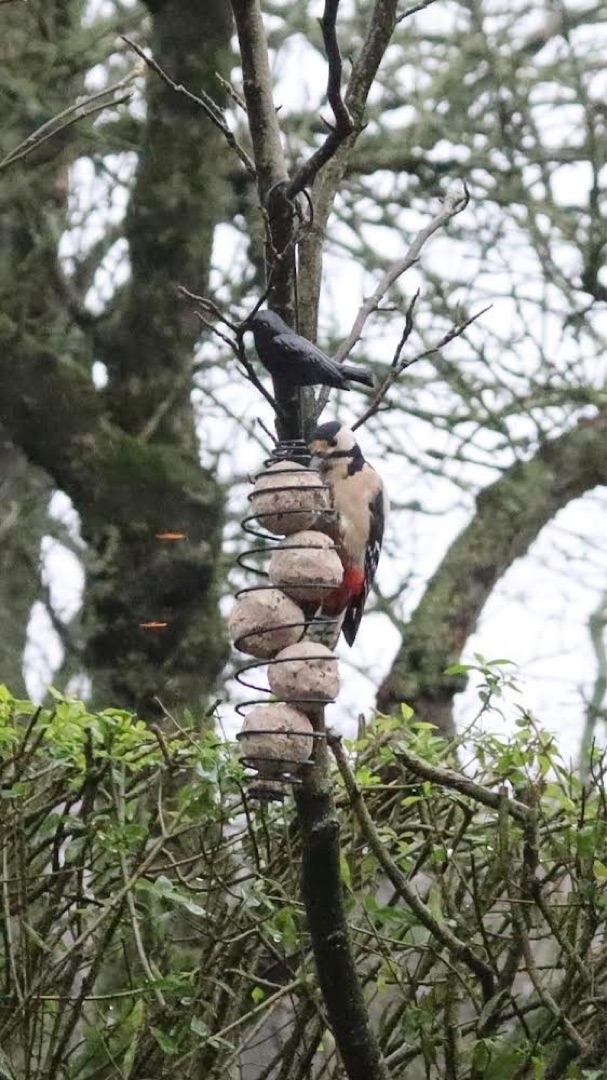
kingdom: Animalia
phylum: Chordata
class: Aves
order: Piciformes
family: Picidae
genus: Dendrocopos
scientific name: Dendrocopos major
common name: Stor flagspætte
